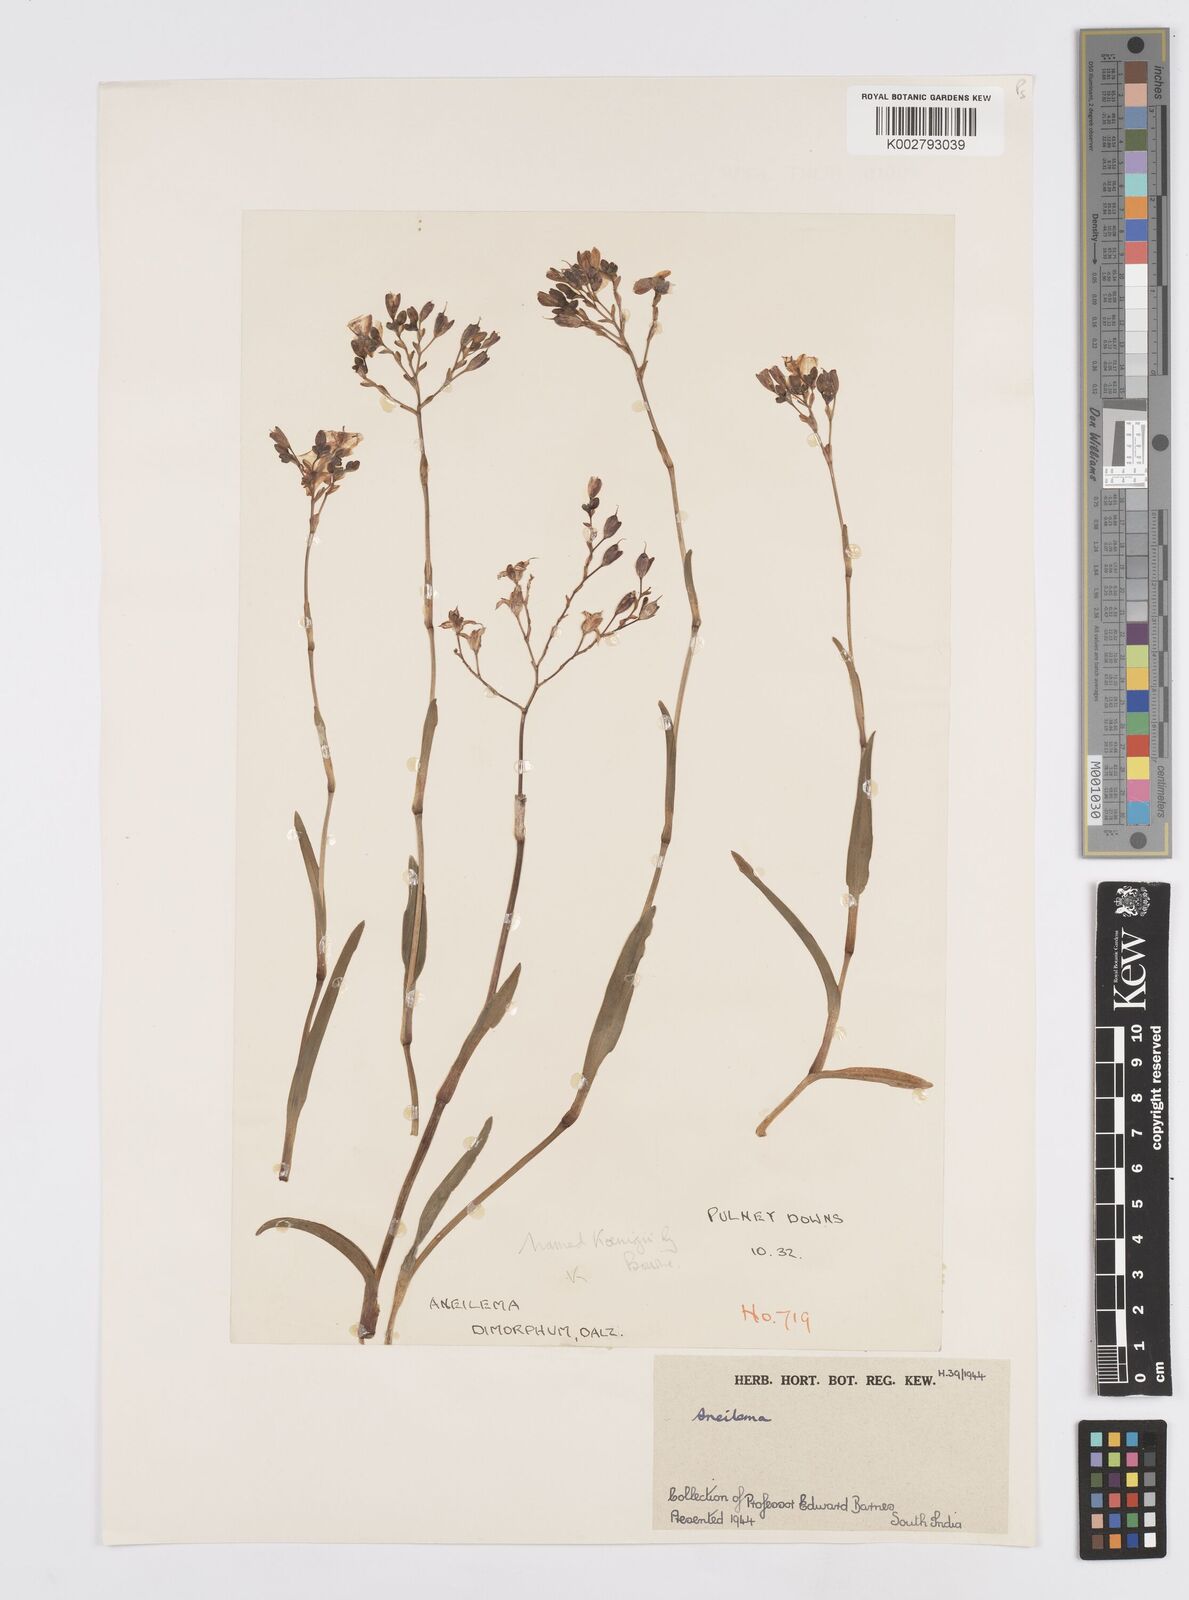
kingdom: Plantae
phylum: Tracheophyta
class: Liliopsida
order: Commelinales
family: Commelinaceae
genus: Murdannia
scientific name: Murdannia dimorpha
